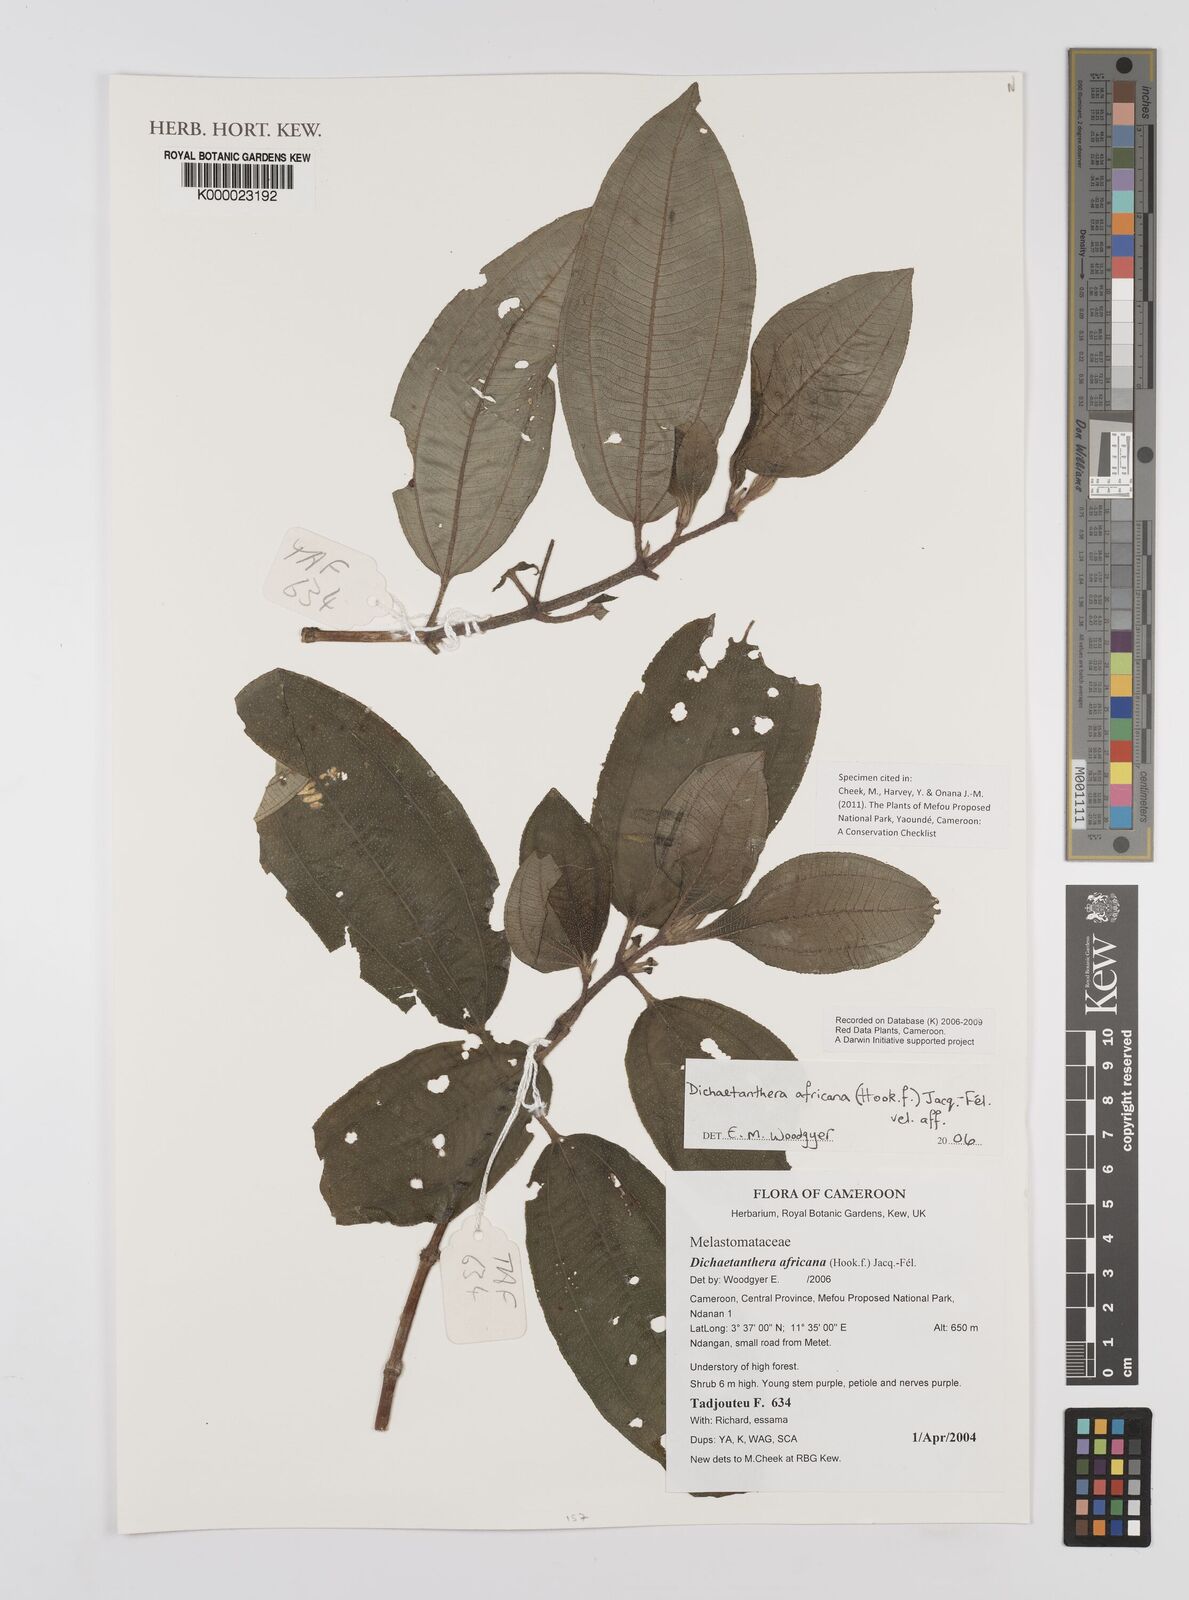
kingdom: Plantae
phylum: Tracheophyta
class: Magnoliopsida
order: Myrtales
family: Melastomataceae
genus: Dichaetanthera
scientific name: Dichaetanthera
